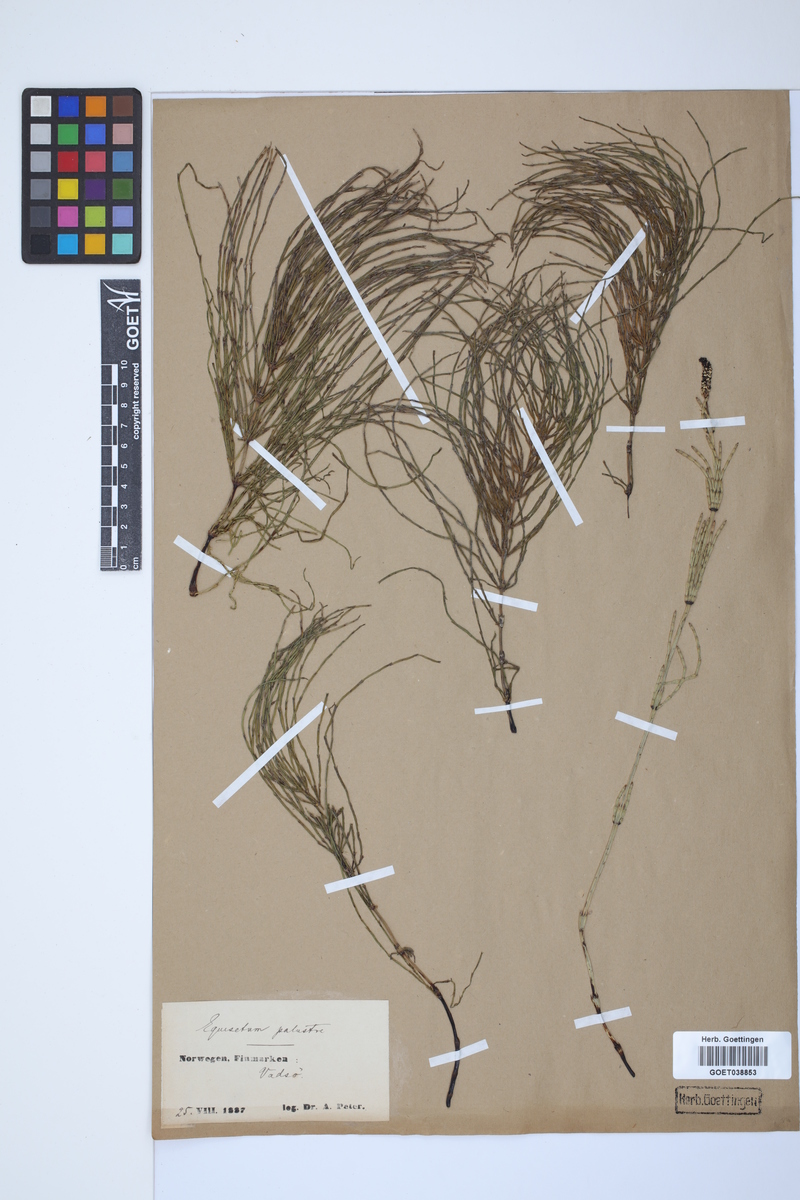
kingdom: Plantae
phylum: Tracheophyta
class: Polypodiopsida
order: Equisetales
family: Equisetaceae
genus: Equisetum
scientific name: Equisetum palustre
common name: Marsh horsetail
